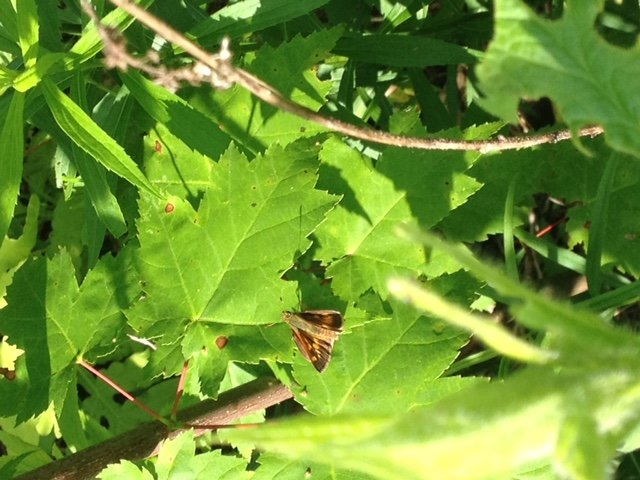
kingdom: Animalia
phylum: Arthropoda
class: Insecta
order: Lepidoptera
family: Hesperiidae
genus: Hesperia
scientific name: Hesperia sassacus
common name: Sassacus Skipper
